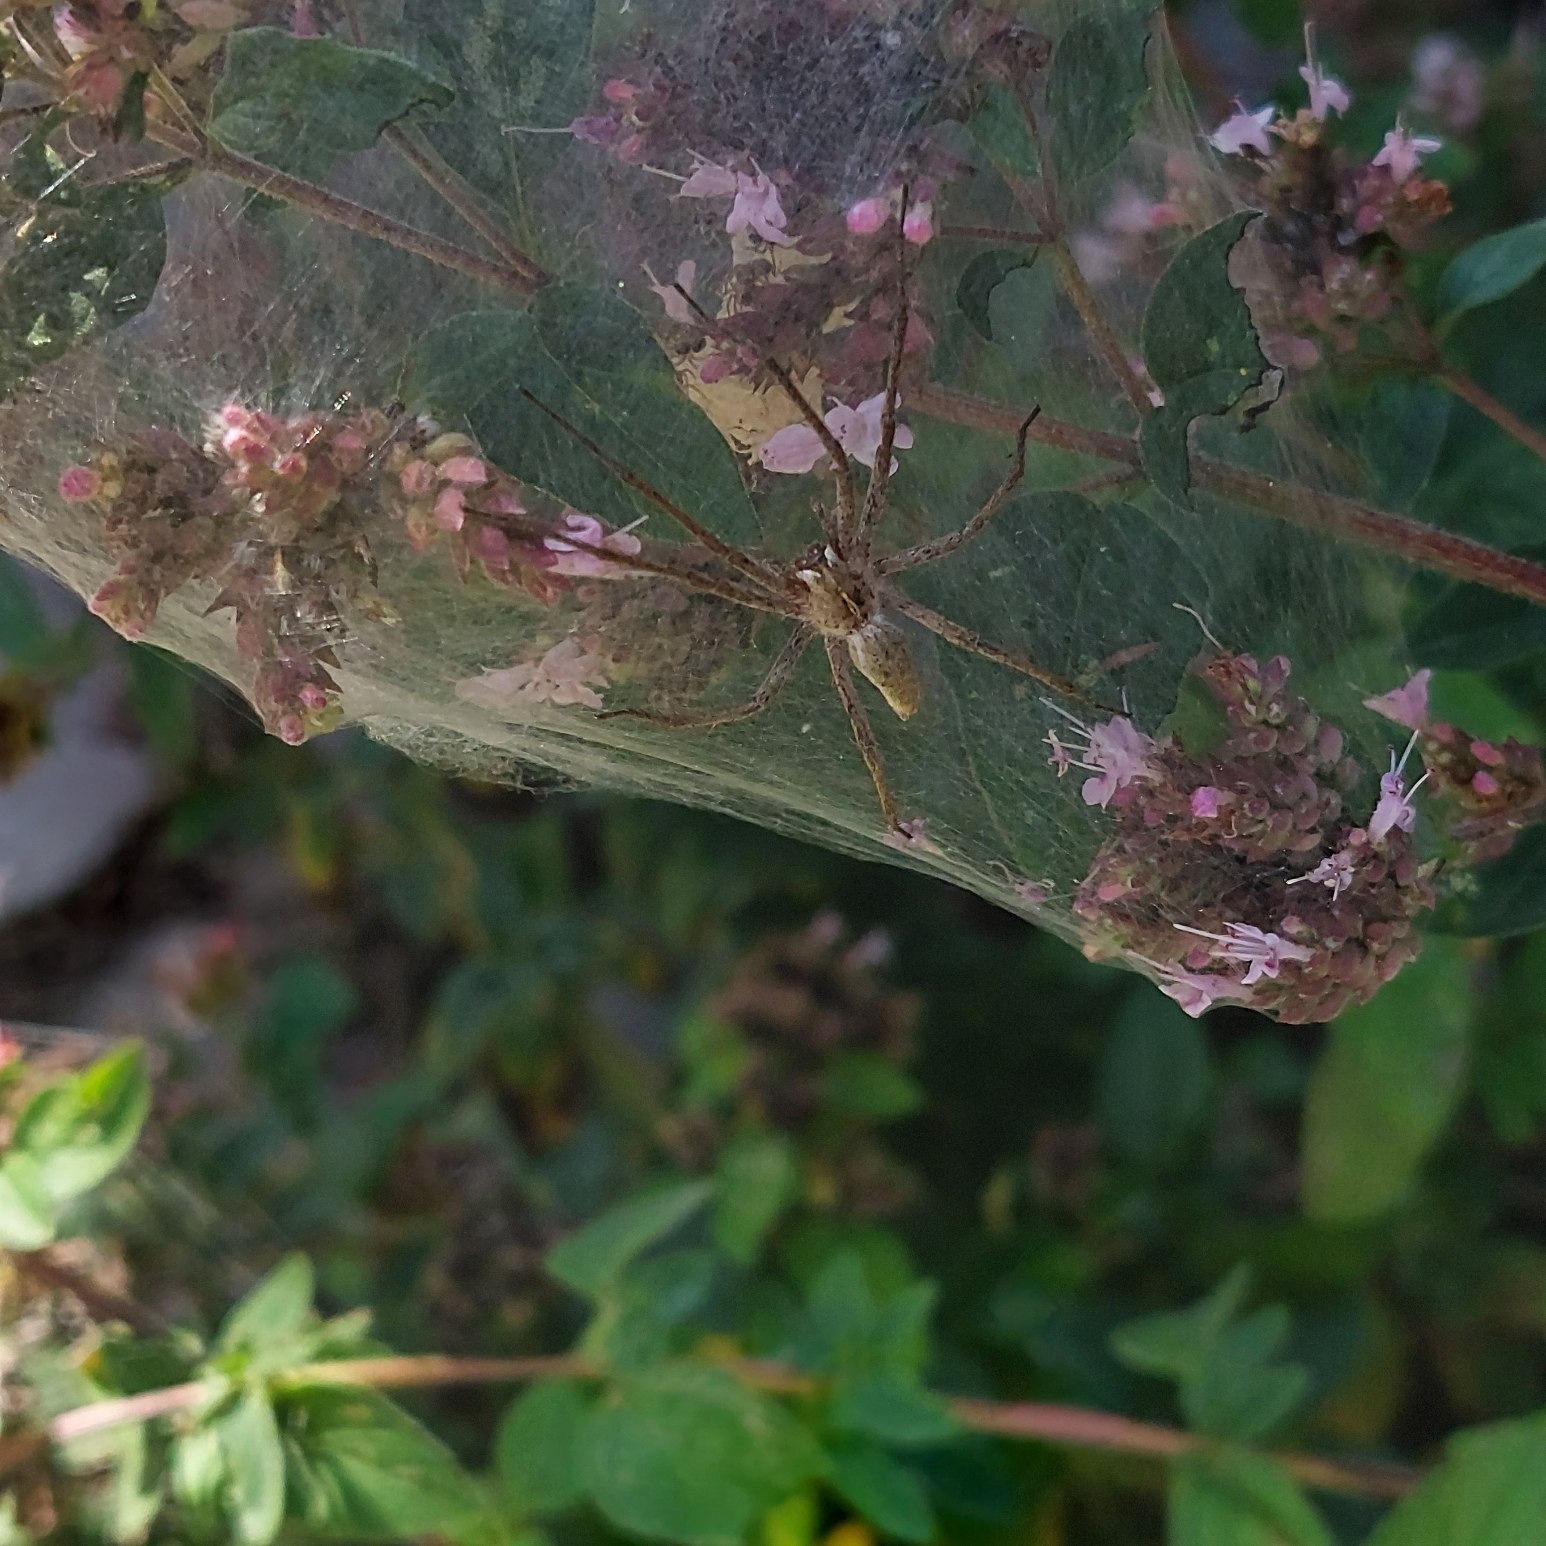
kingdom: Animalia
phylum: Arthropoda
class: Arachnida
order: Araneae
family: Pisauridae
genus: Pisaura
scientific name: Pisaura mirabilis
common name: Almindelig rovedderkop
